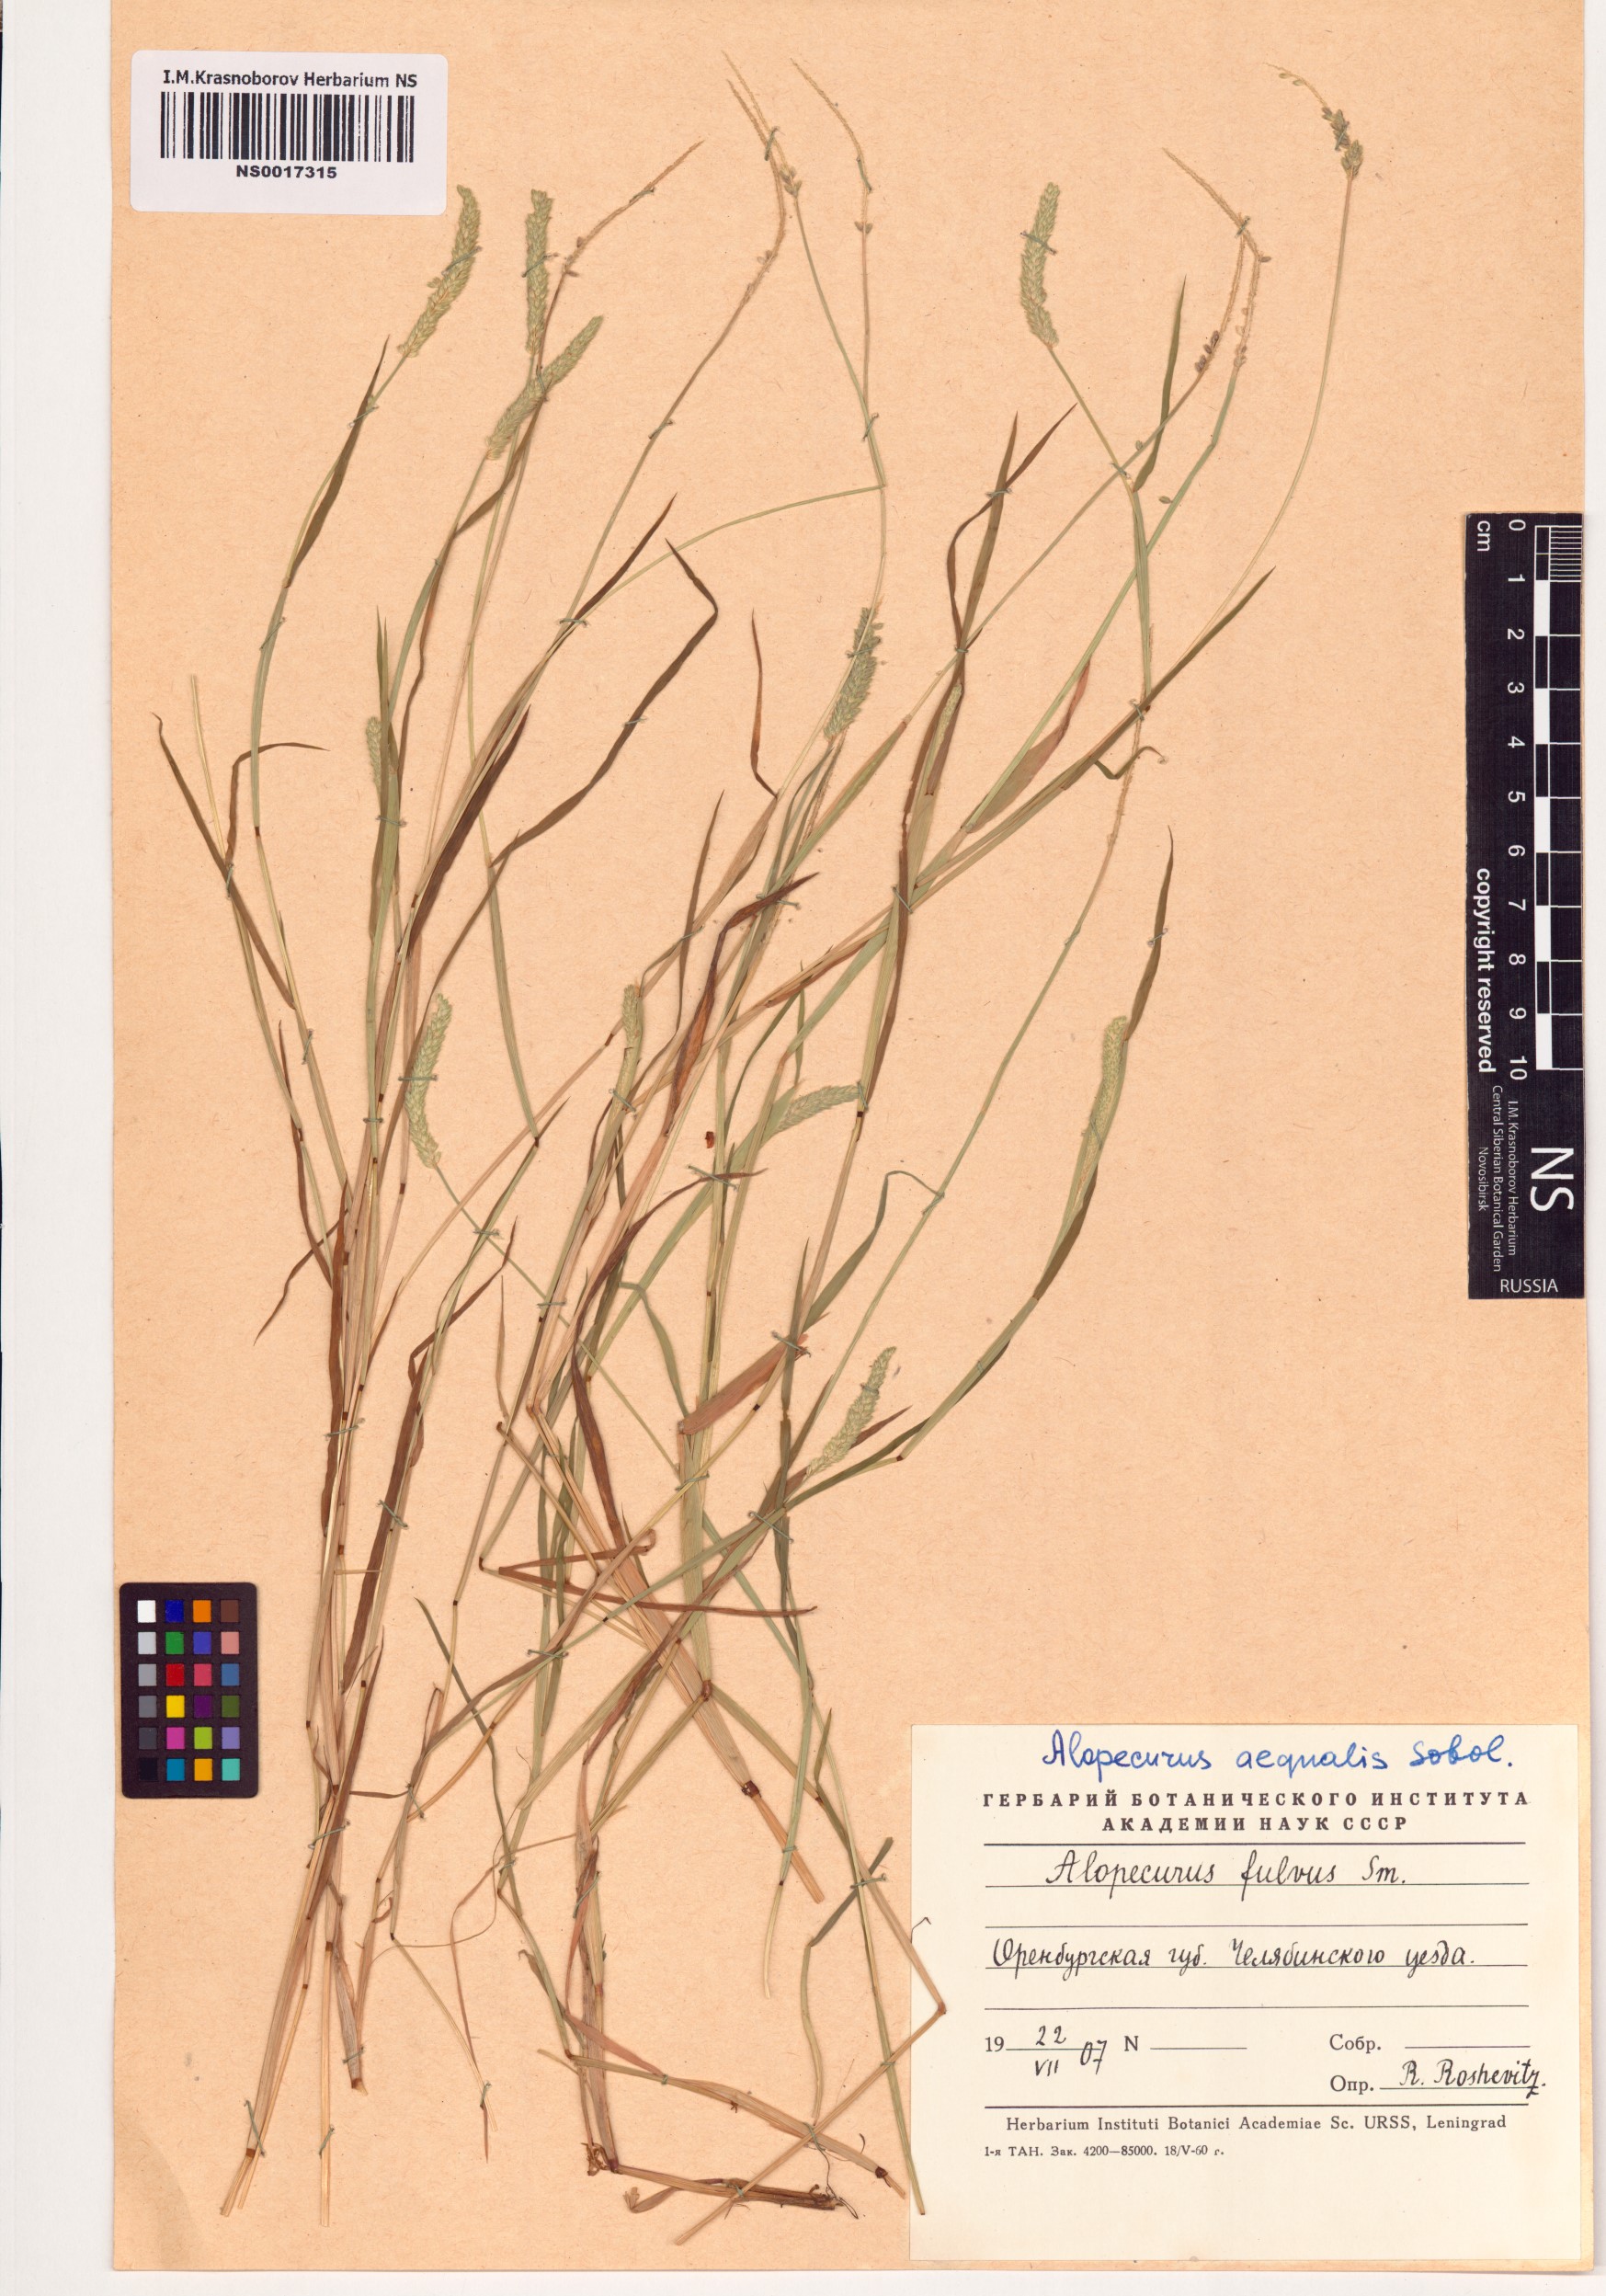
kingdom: Plantae
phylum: Tracheophyta
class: Liliopsida
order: Poales
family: Poaceae
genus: Alopecurus
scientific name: Alopecurus aequalis
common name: Orange foxtail
